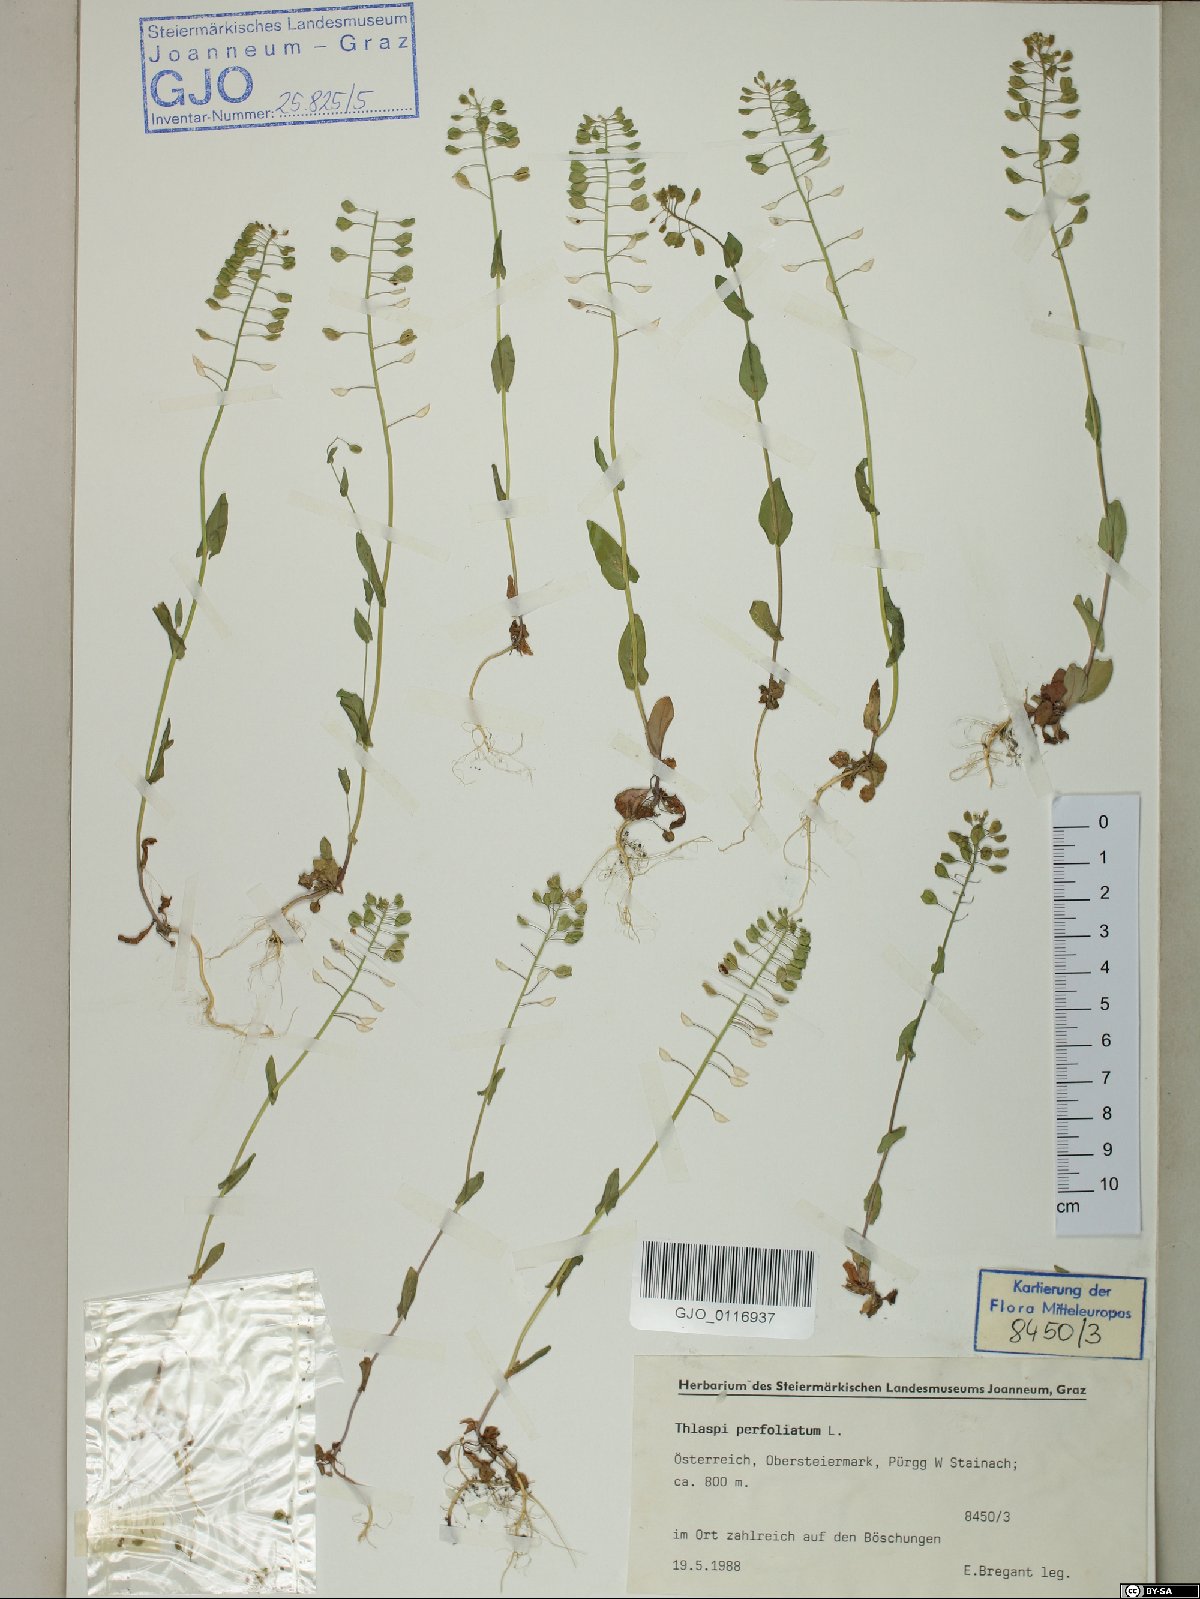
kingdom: Plantae
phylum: Tracheophyta
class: Magnoliopsida
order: Brassicales
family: Brassicaceae
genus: Noccaea
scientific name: Noccaea perfoliata
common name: Perfoliate pennycress
